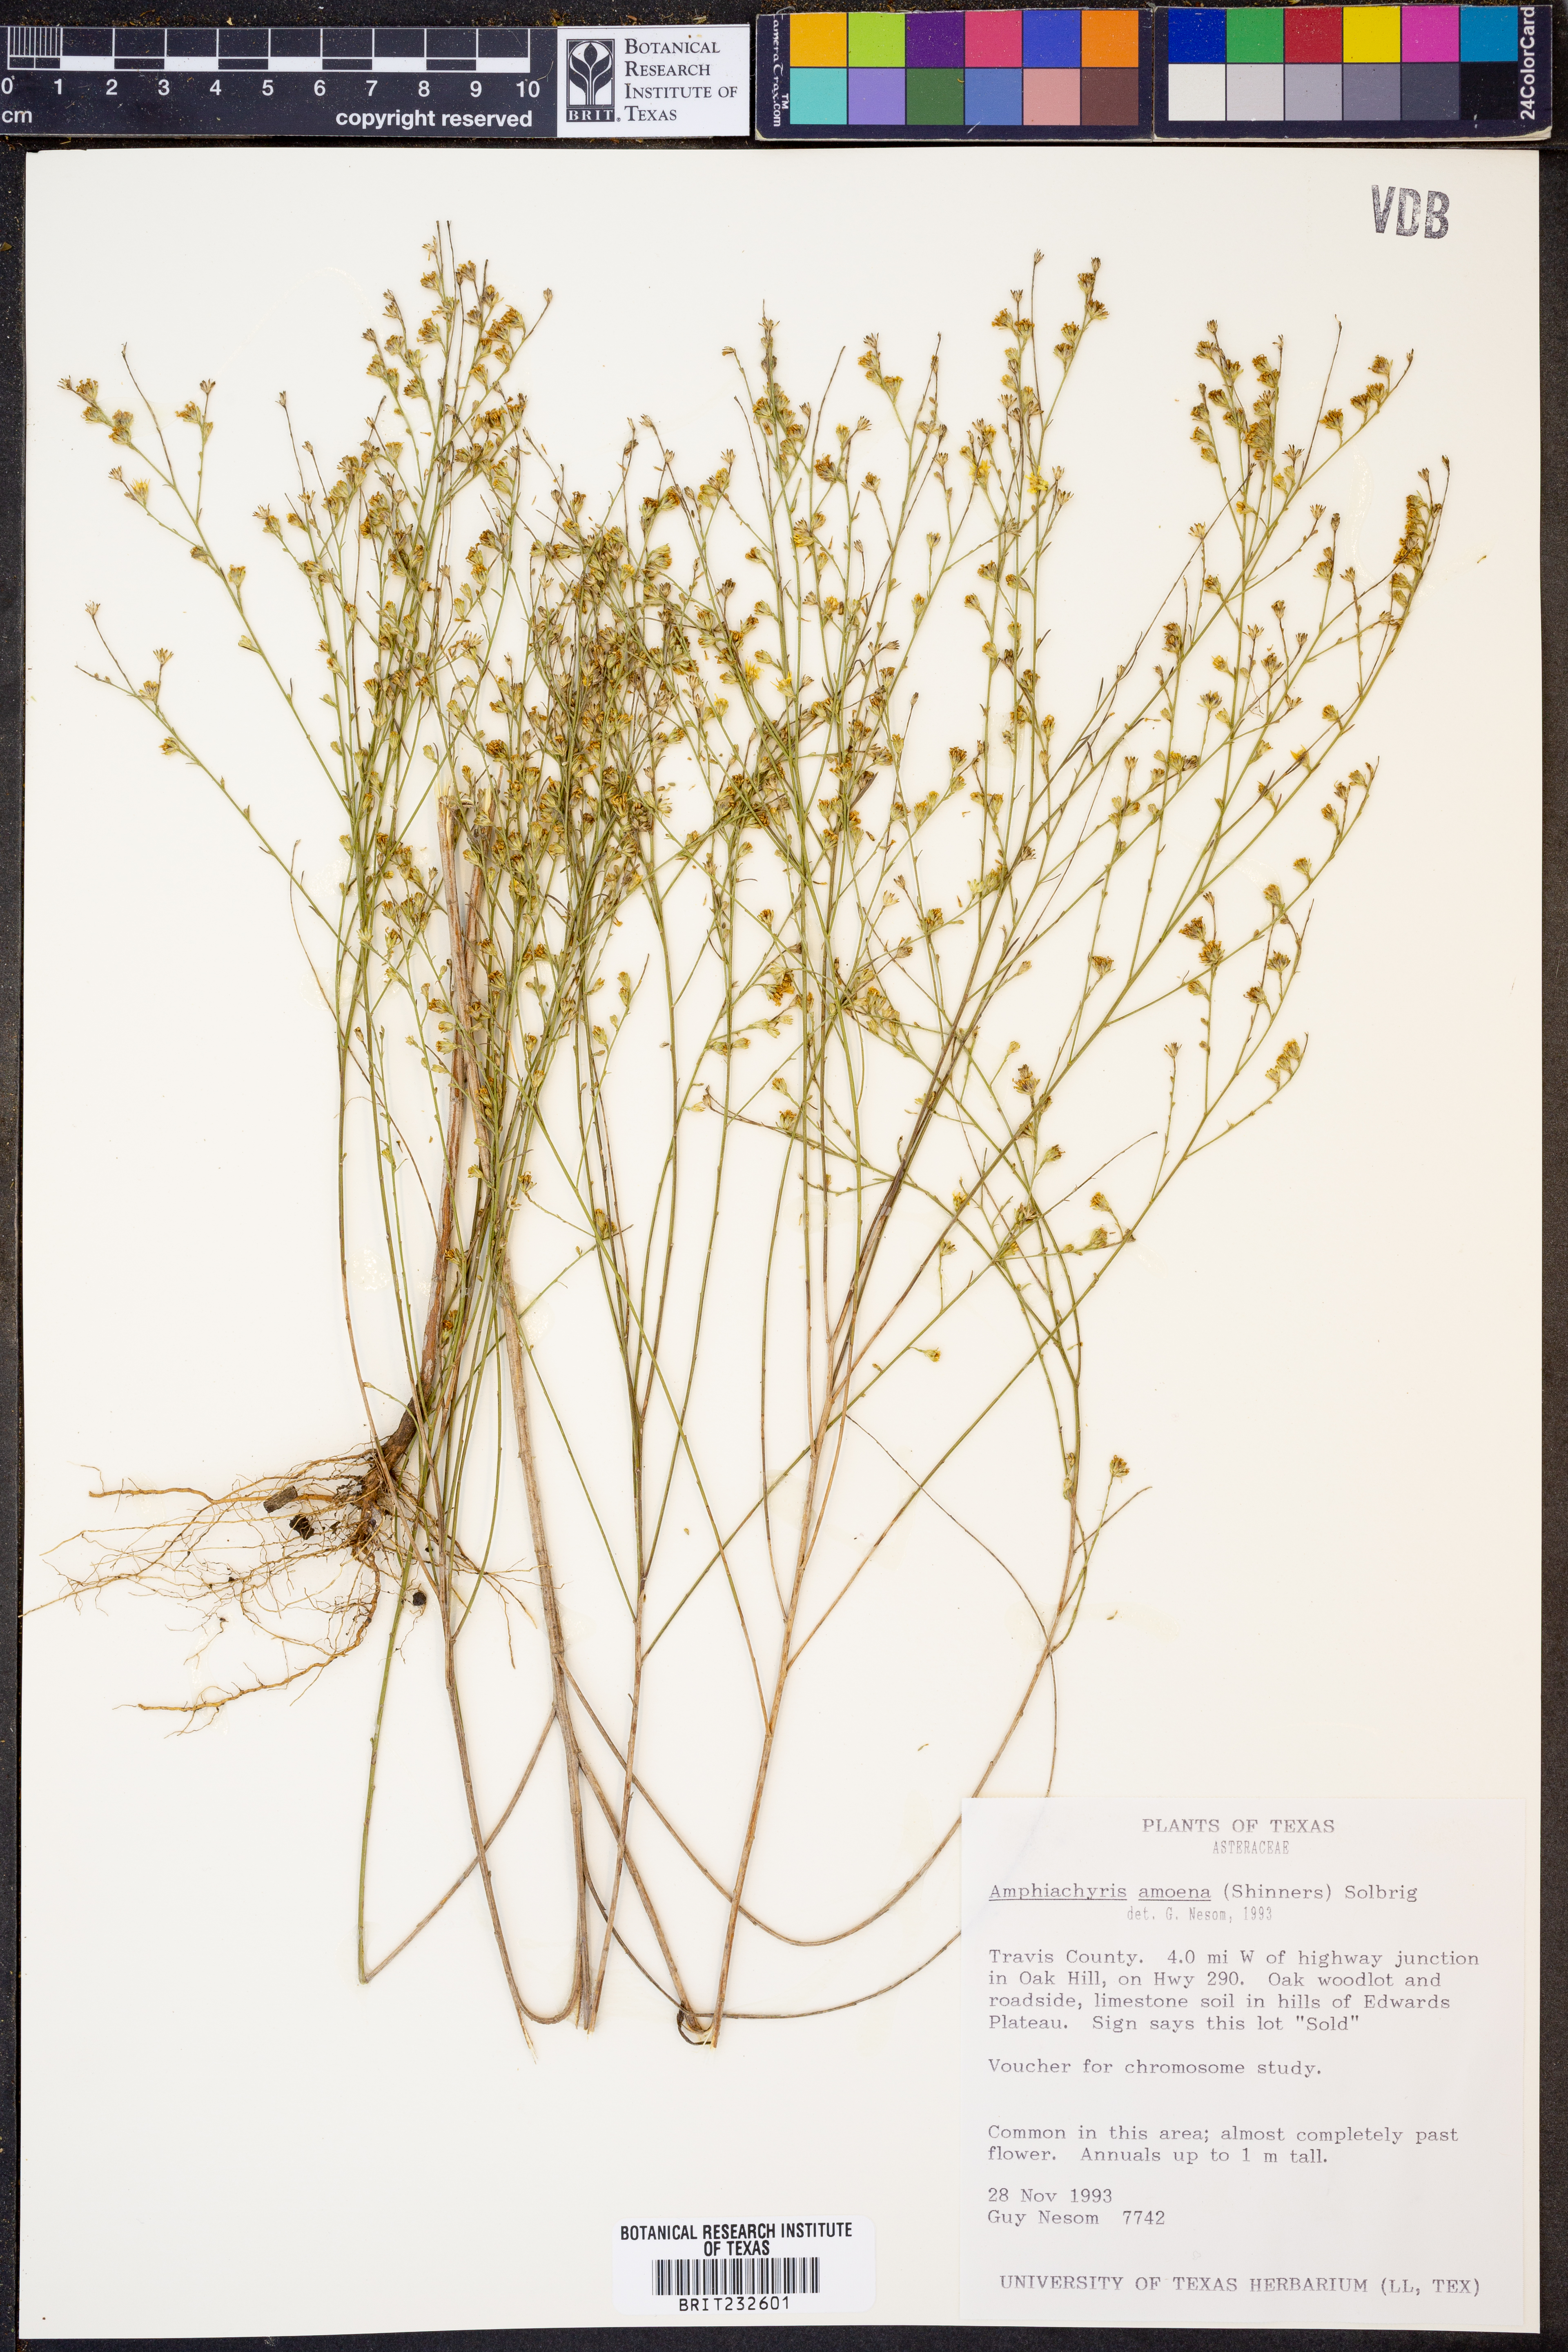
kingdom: Plantae
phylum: Tracheophyta
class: Magnoliopsida
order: Asterales
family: Asteraceae
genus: Amphiachyris
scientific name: Amphiachyris amoenum
